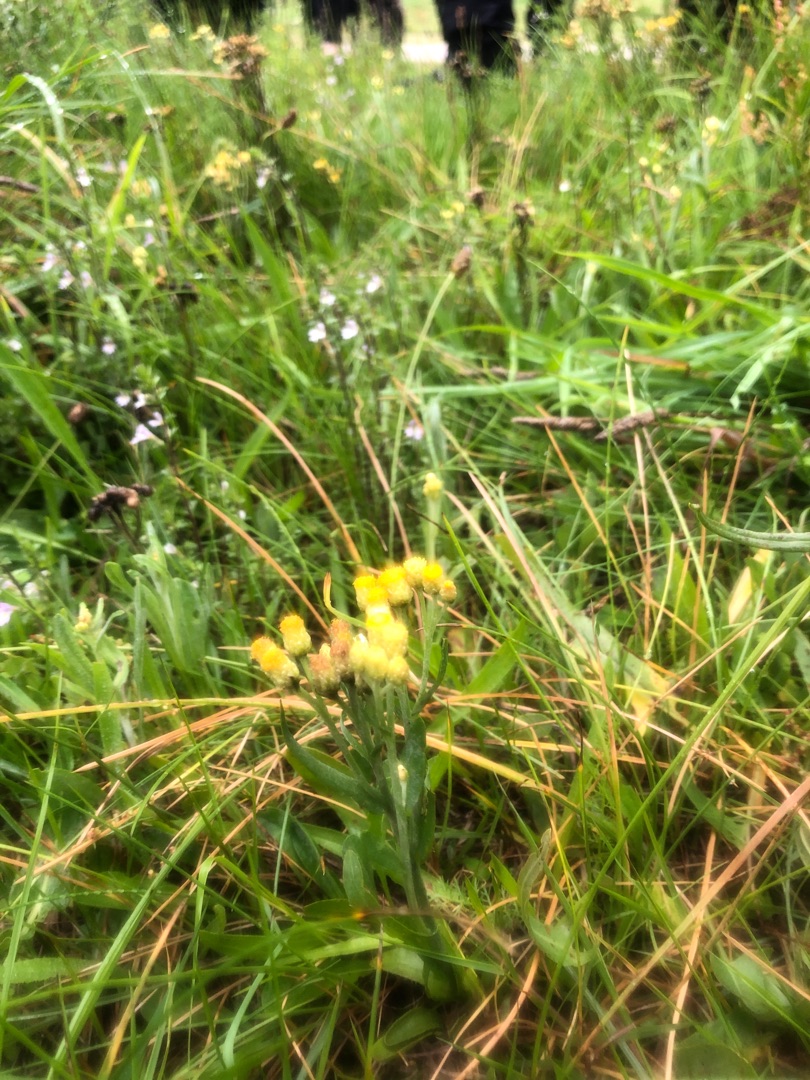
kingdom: Plantae
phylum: Tracheophyta
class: Magnoliopsida
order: Asterales
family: Asteraceae
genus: Helichrysum
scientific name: Helichrysum arenarium
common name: Gul evighedsblomst
